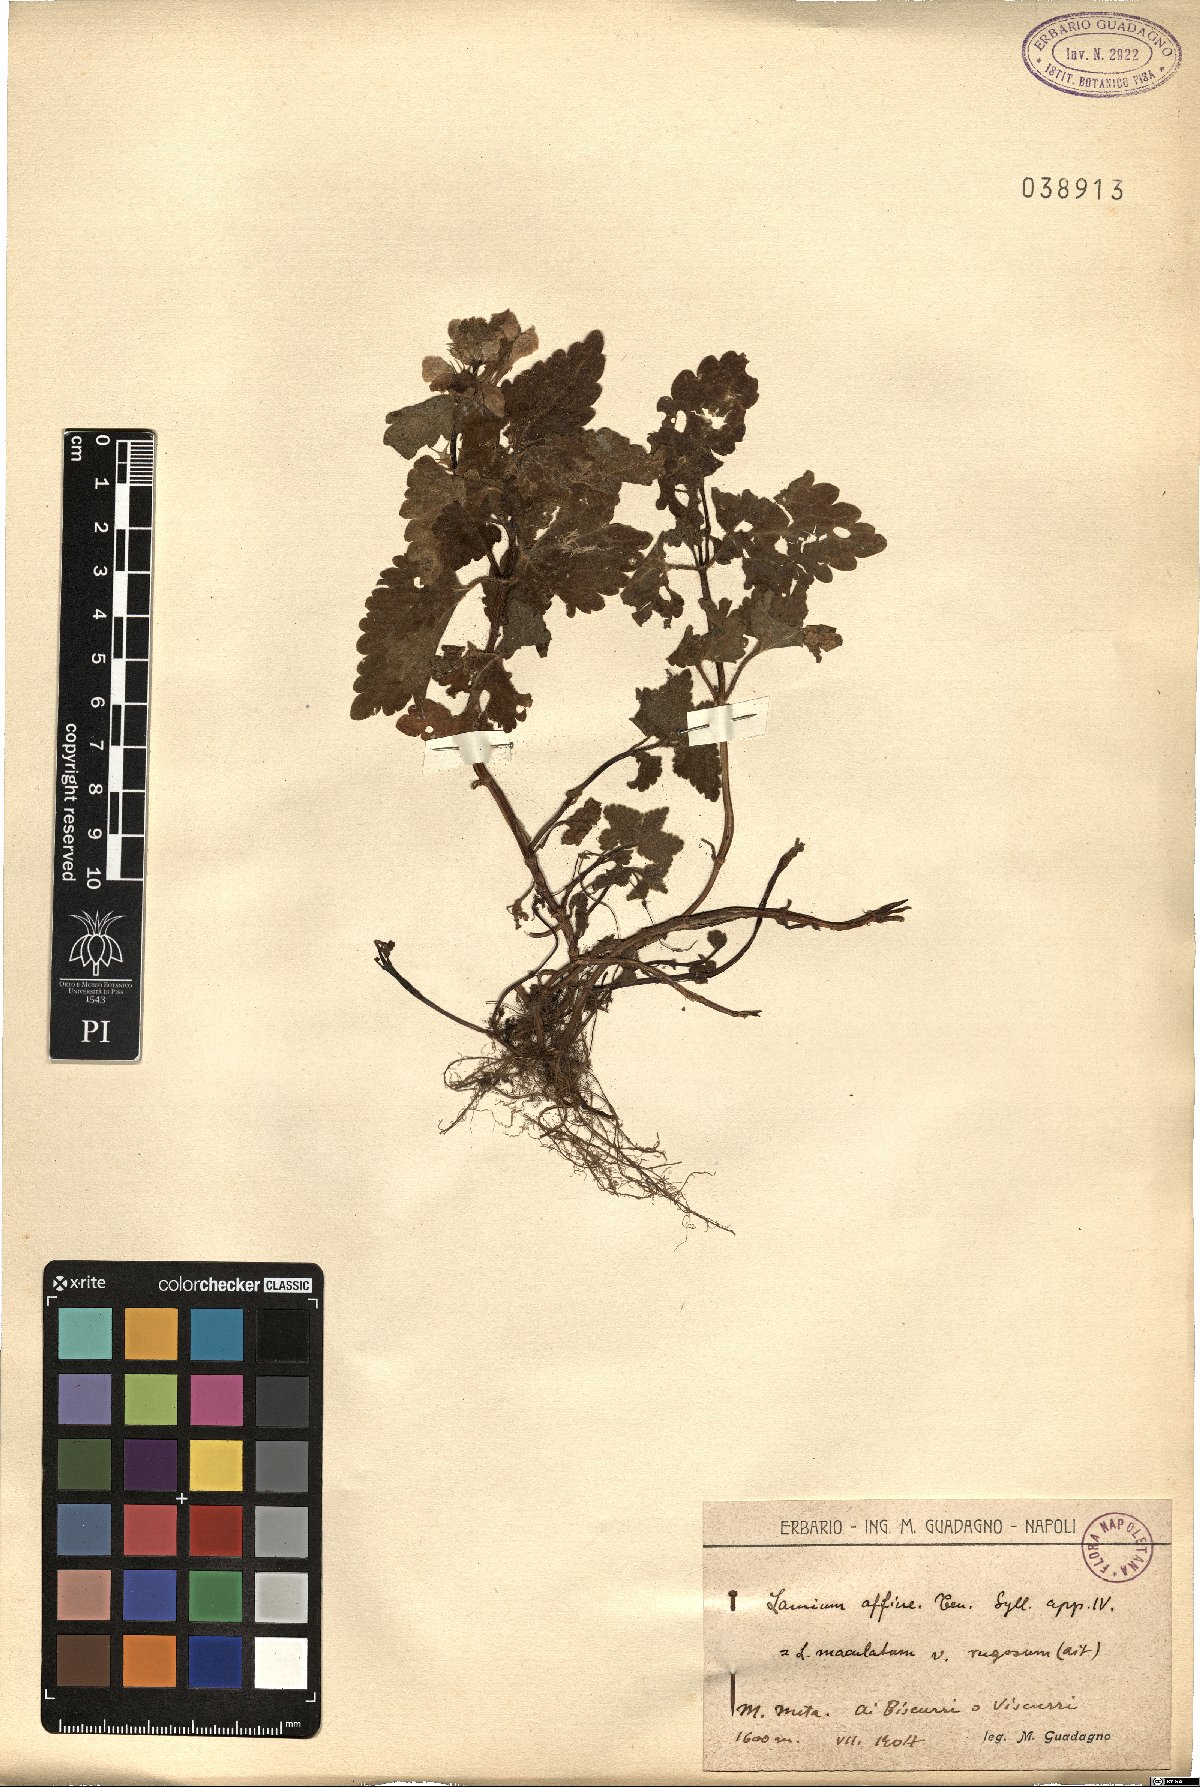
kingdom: Plantae
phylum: Tracheophyta
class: Magnoliopsida
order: Lamiales
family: Lamiaceae
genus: Lamium
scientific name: Lamium maculatum
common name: Spotted dead-nettle
